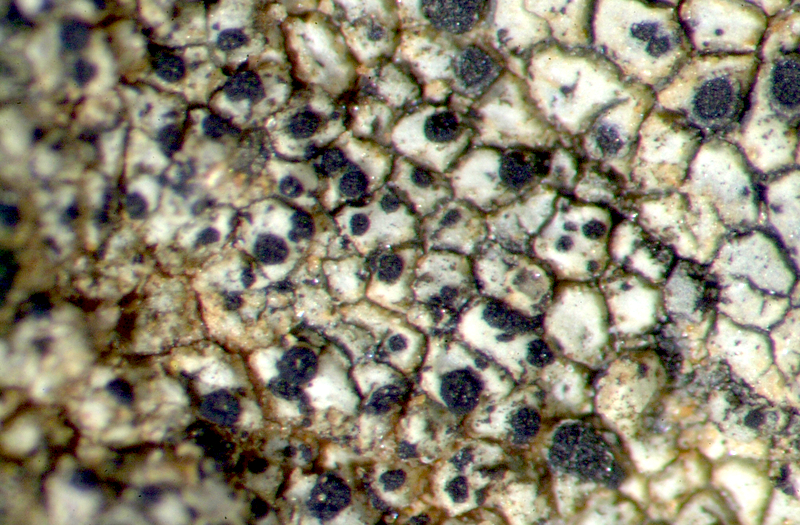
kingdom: Fungi
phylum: Ascomycota
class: Lecanoromycetes
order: Acarosporales
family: Acarosporaceae
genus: Acarospora
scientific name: Acarospora
